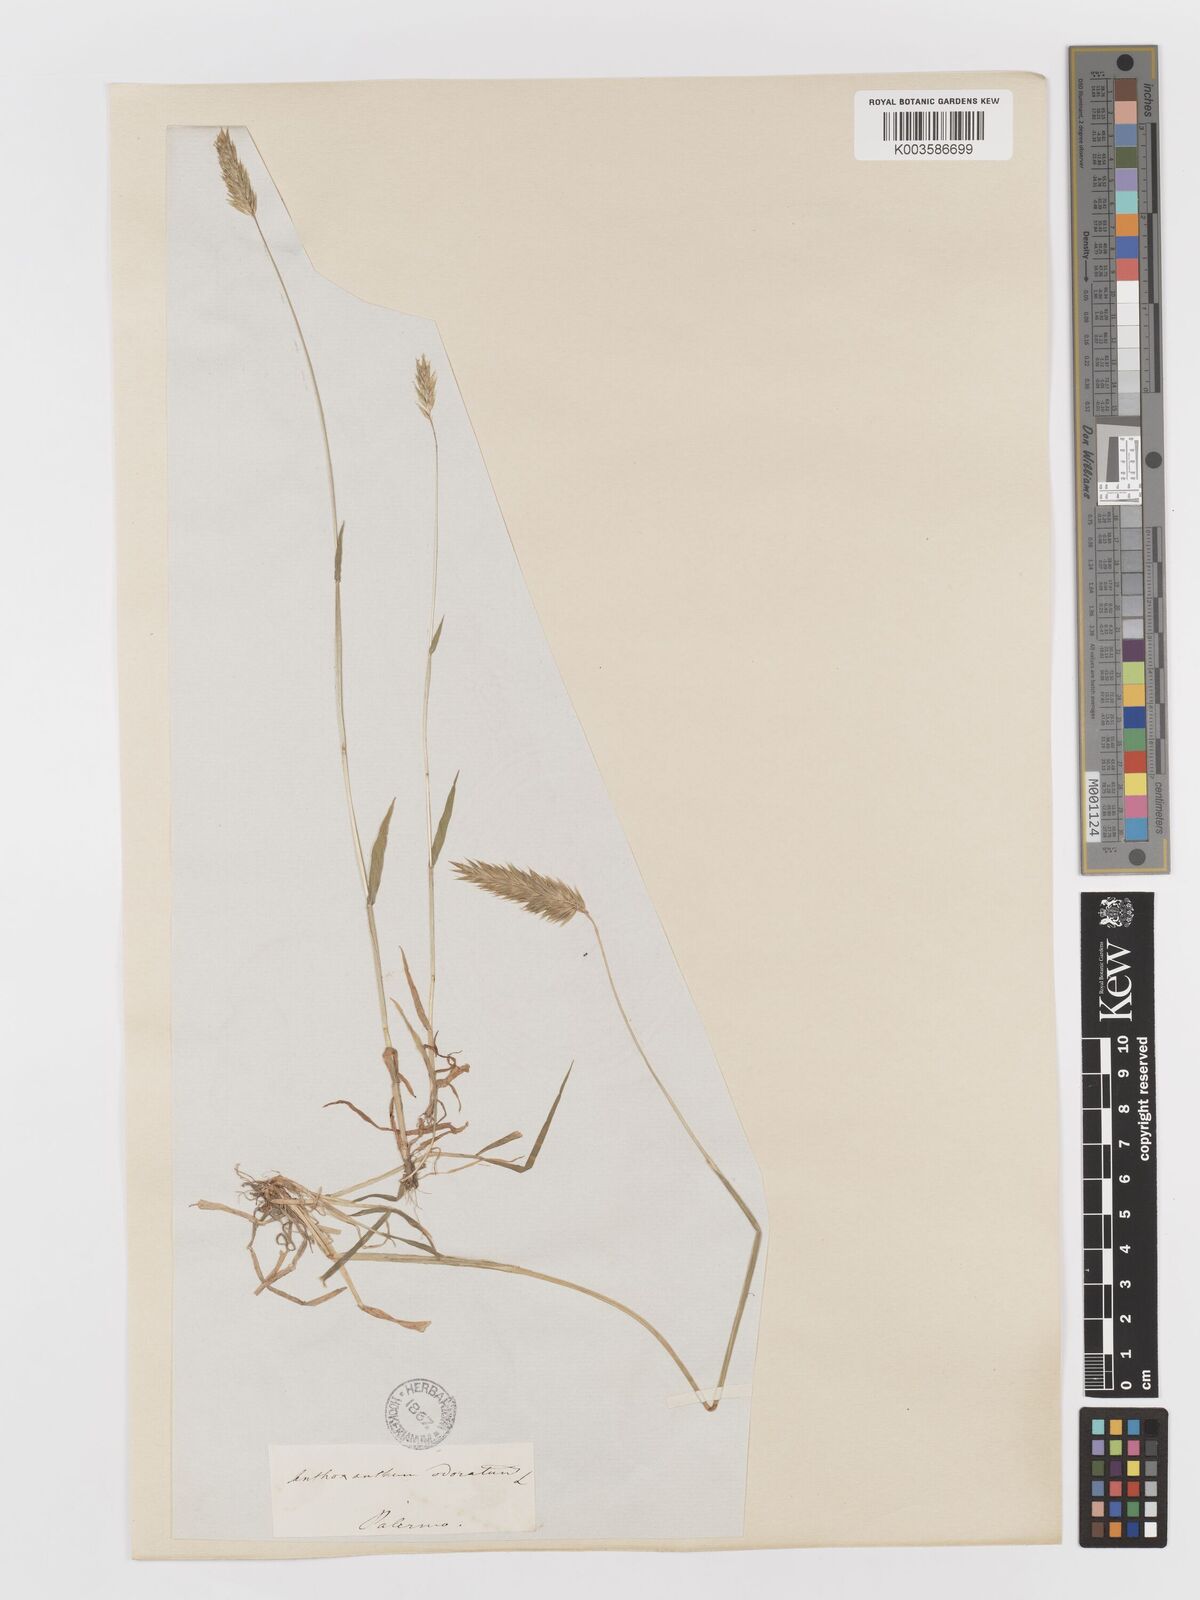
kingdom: Plantae
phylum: Tracheophyta
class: Liliopsida
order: Poales
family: Poaceae
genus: Anthoxanthum
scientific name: Anthoxanthum odoratum
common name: Sweet vernalgrass
